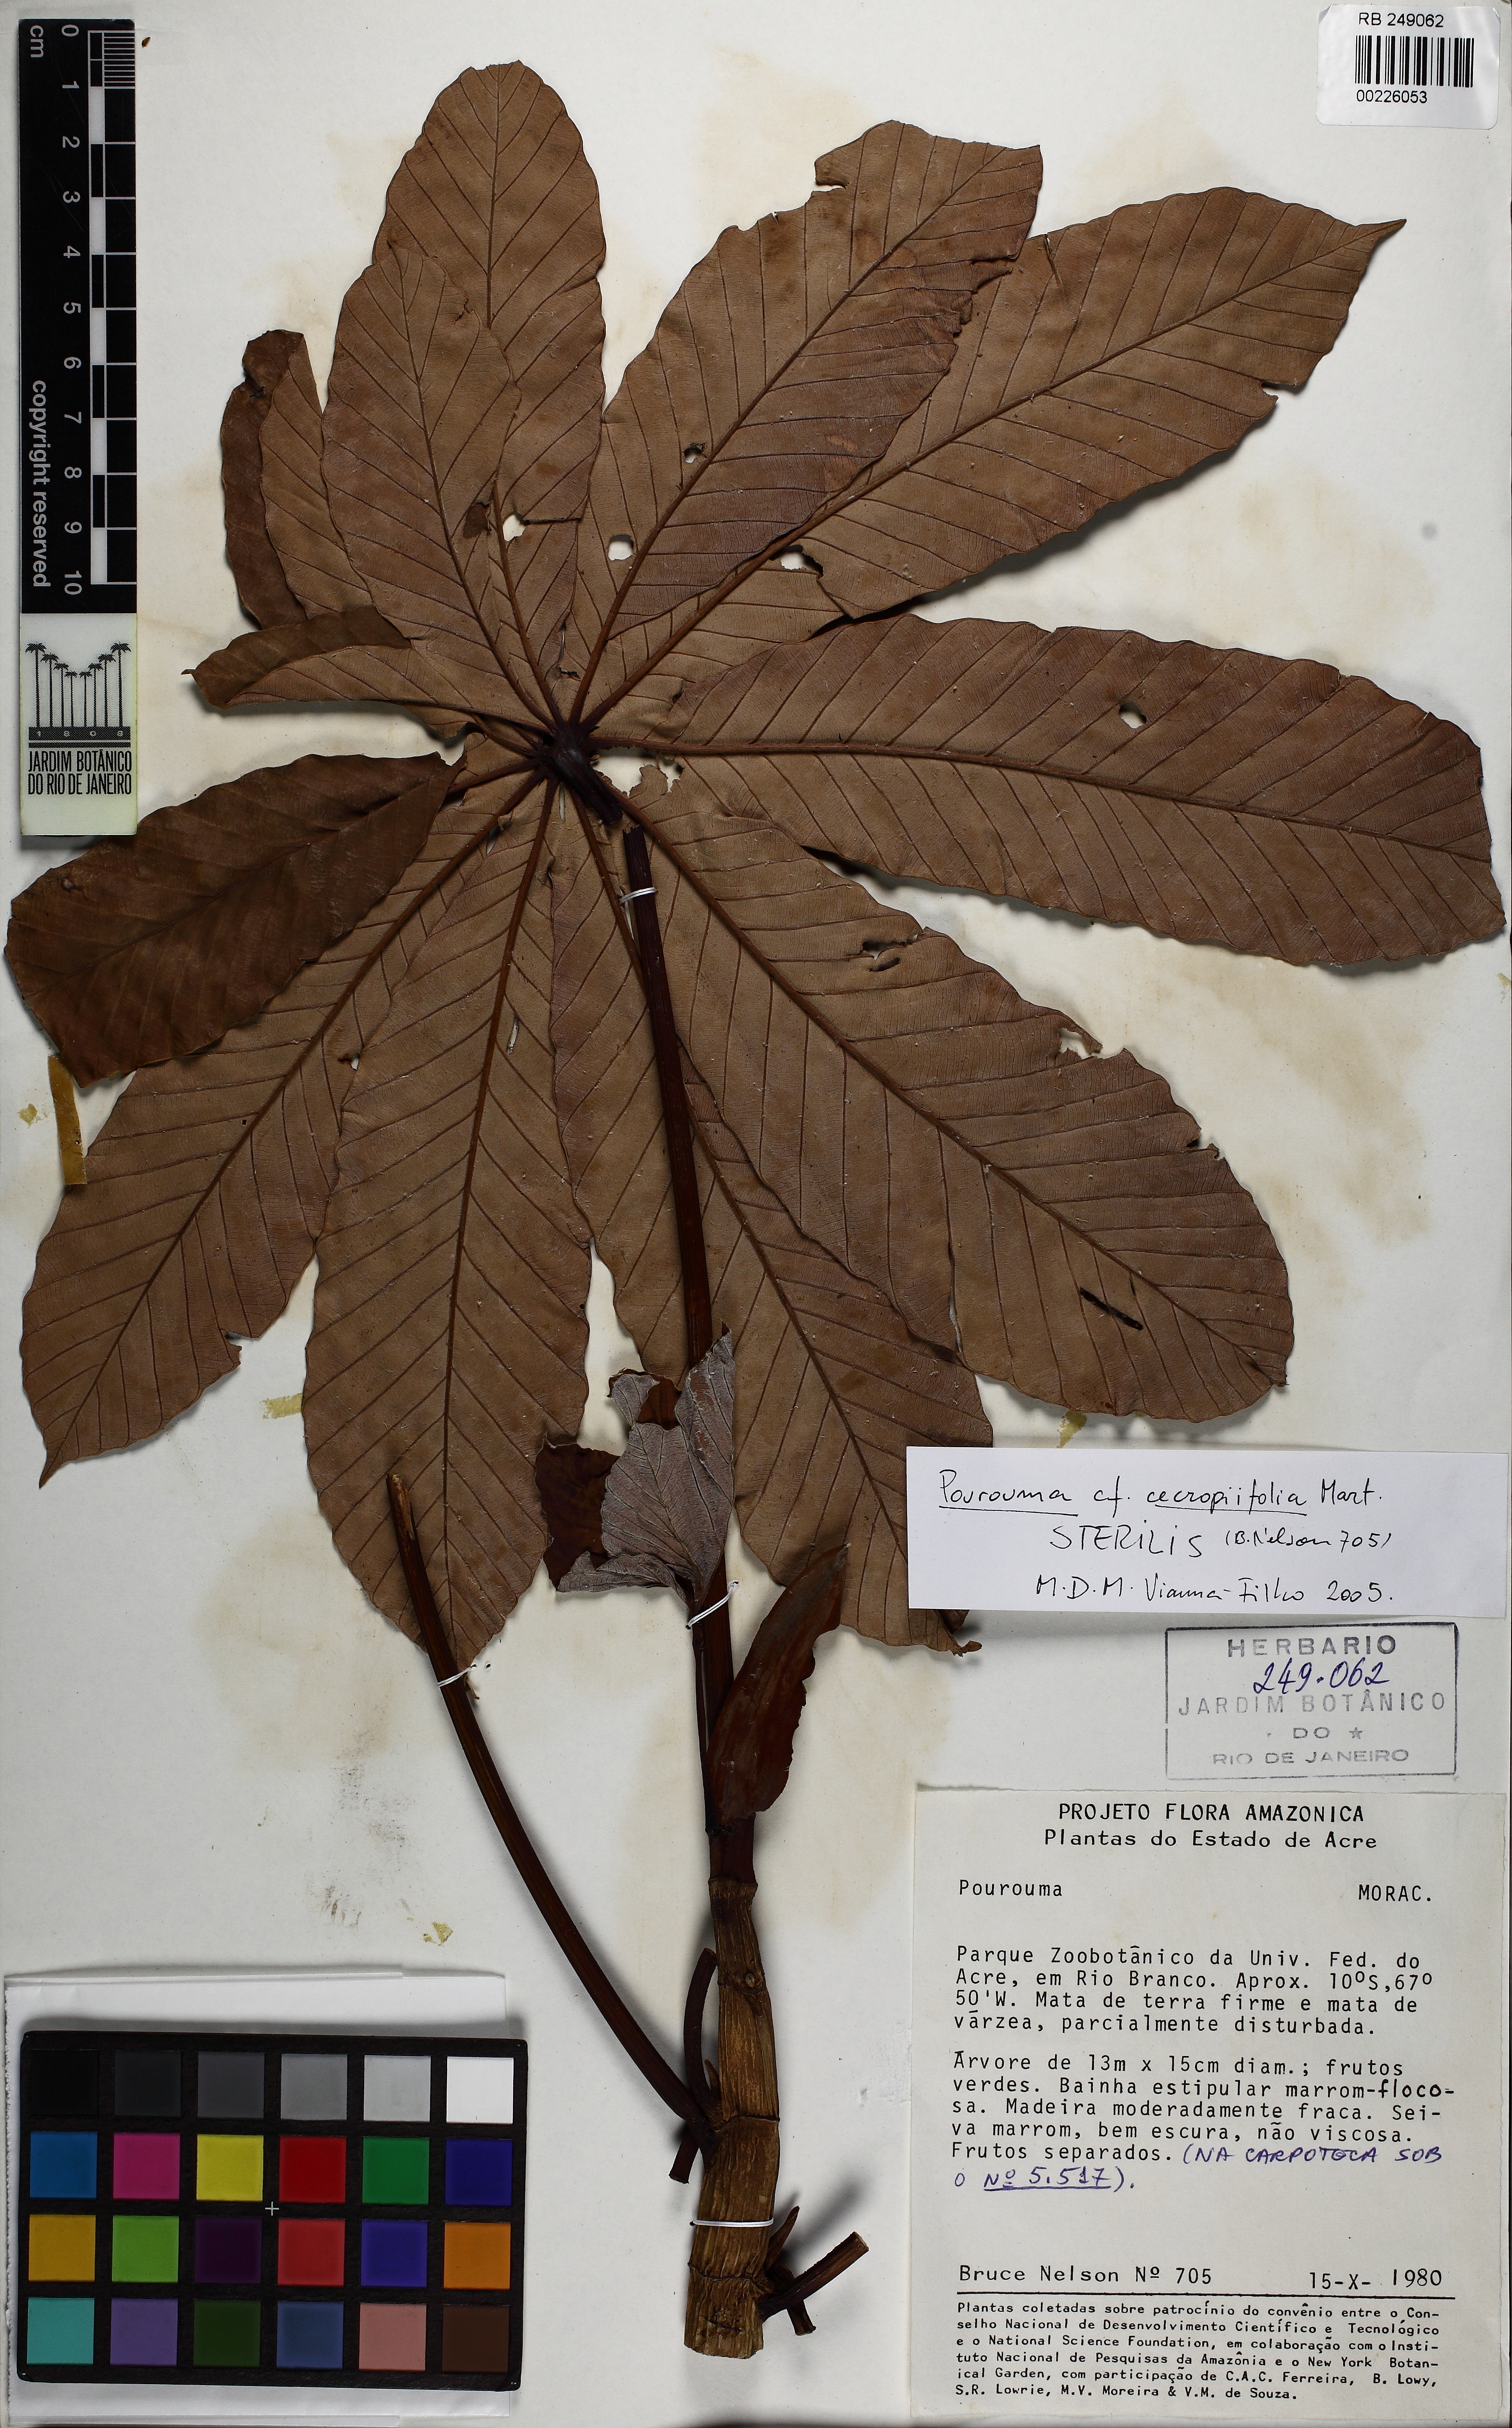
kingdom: Plantae
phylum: Tracheophyta
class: Magnoliopsida
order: Rosales
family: Urticaceae
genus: Pourouma
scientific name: Pourouma cecropiifolia
